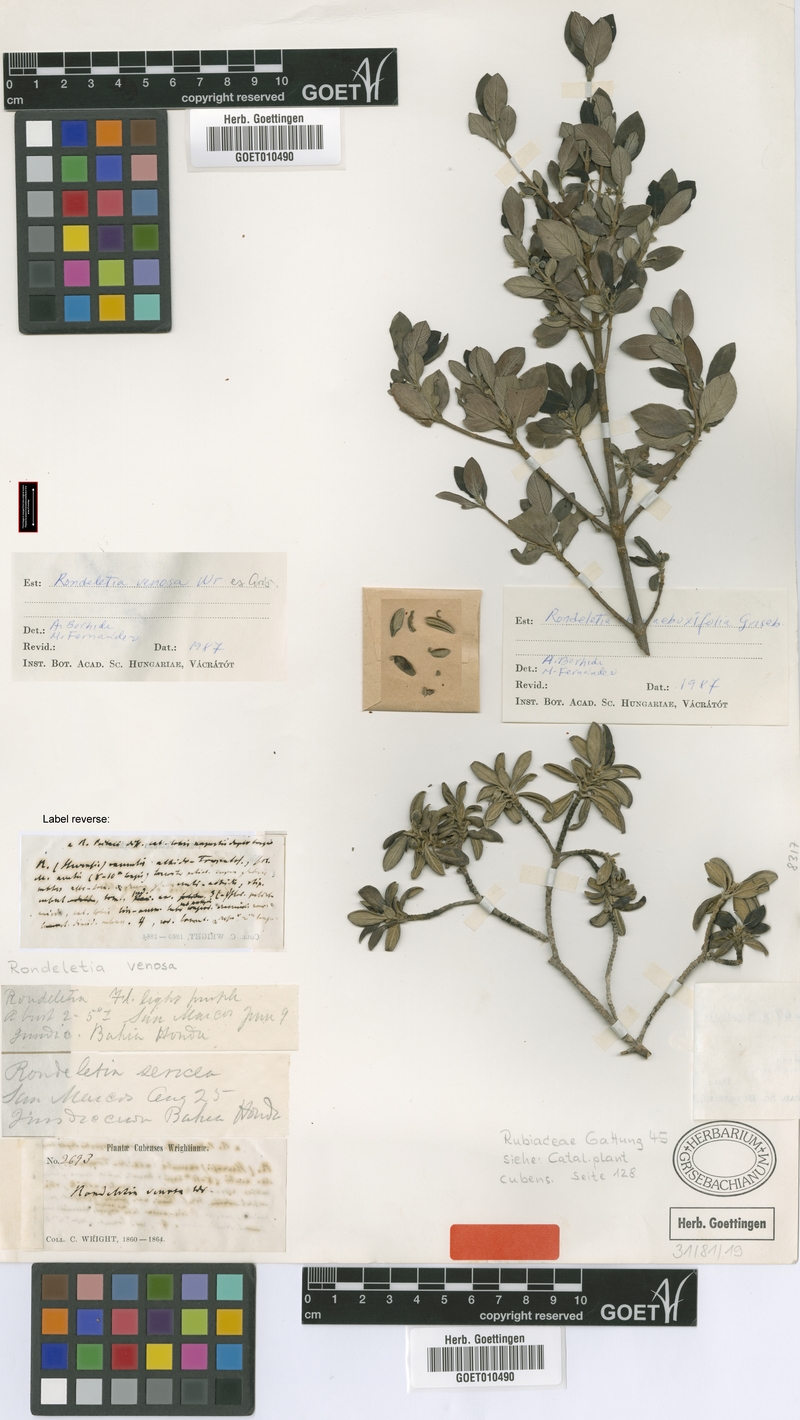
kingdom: Plantae
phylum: Tracheophyta
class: Magnoliopsida
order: Gentianales
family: Rubiaceae
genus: Rondeletia
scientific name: Rondeletia venosa
